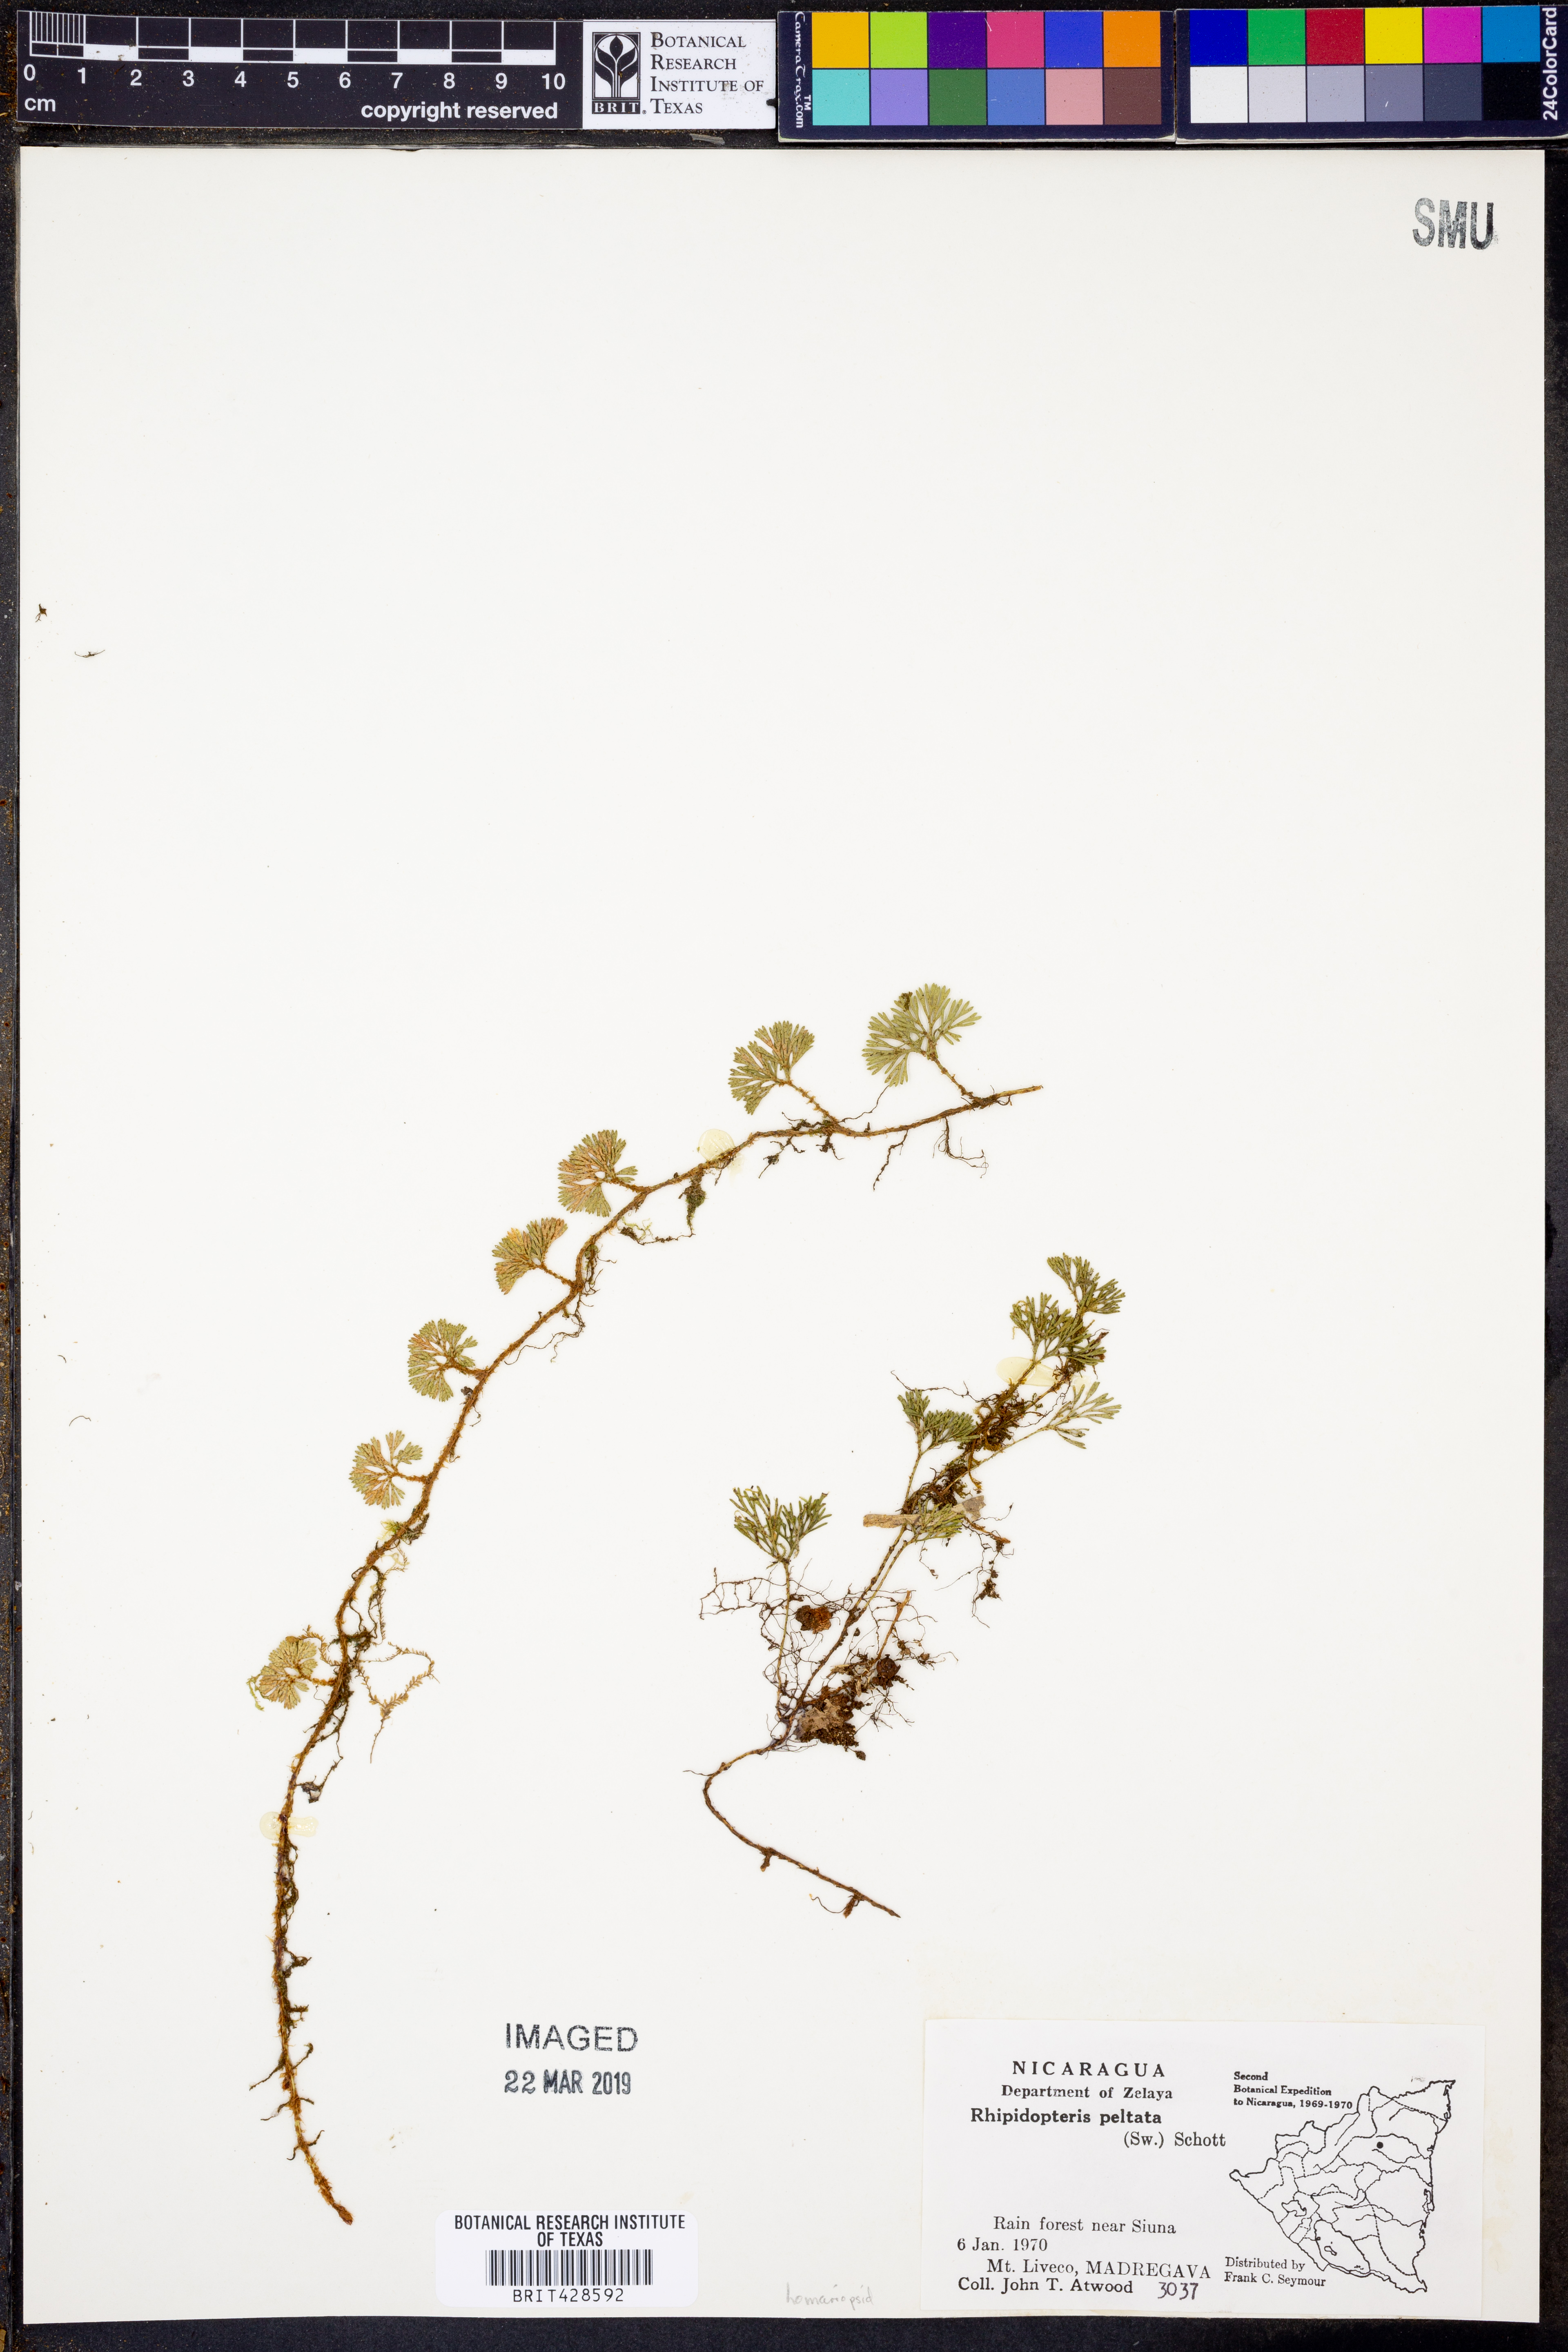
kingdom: Plantae
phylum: Tracheophyta
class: Polypodiopsida
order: Polypodiales
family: Dryopteridaceae
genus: Elaphoglossum
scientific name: Elaphoglossum peltatum
